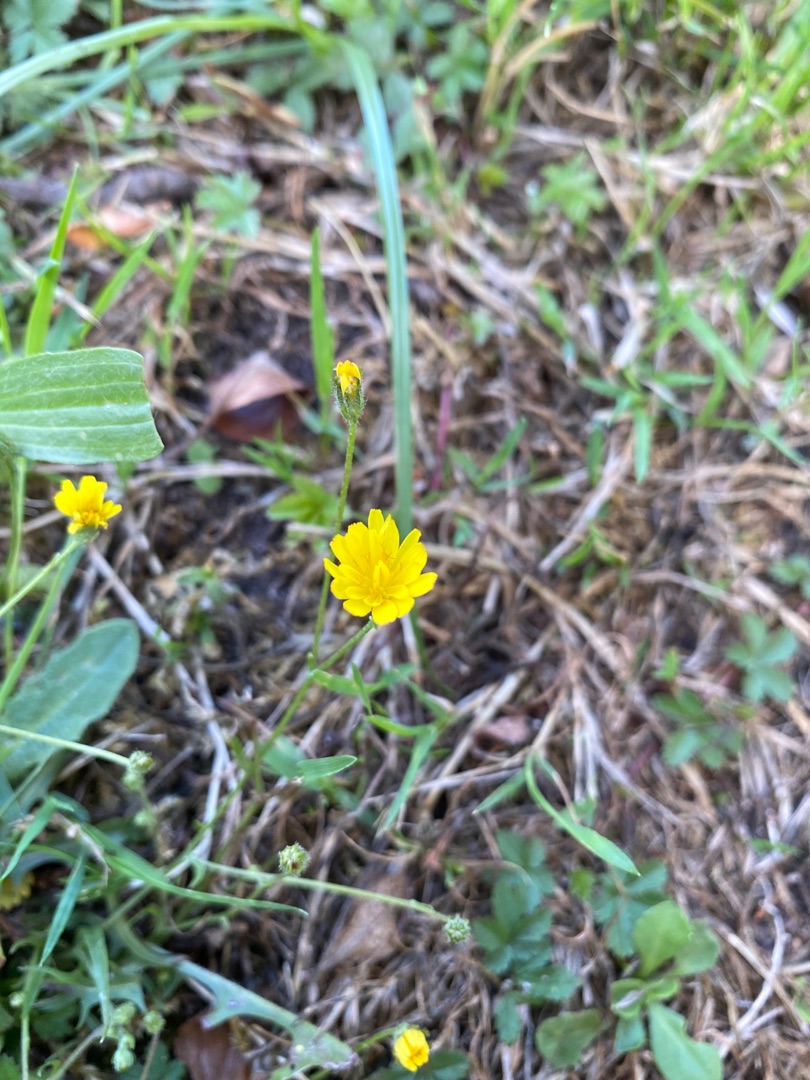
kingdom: Plantae
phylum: Tracheophyta
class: Magnoliopsida
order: Asterales
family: Asteraceae
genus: Crepis
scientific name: Crepis capillaris
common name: Grøn høgeskæg
